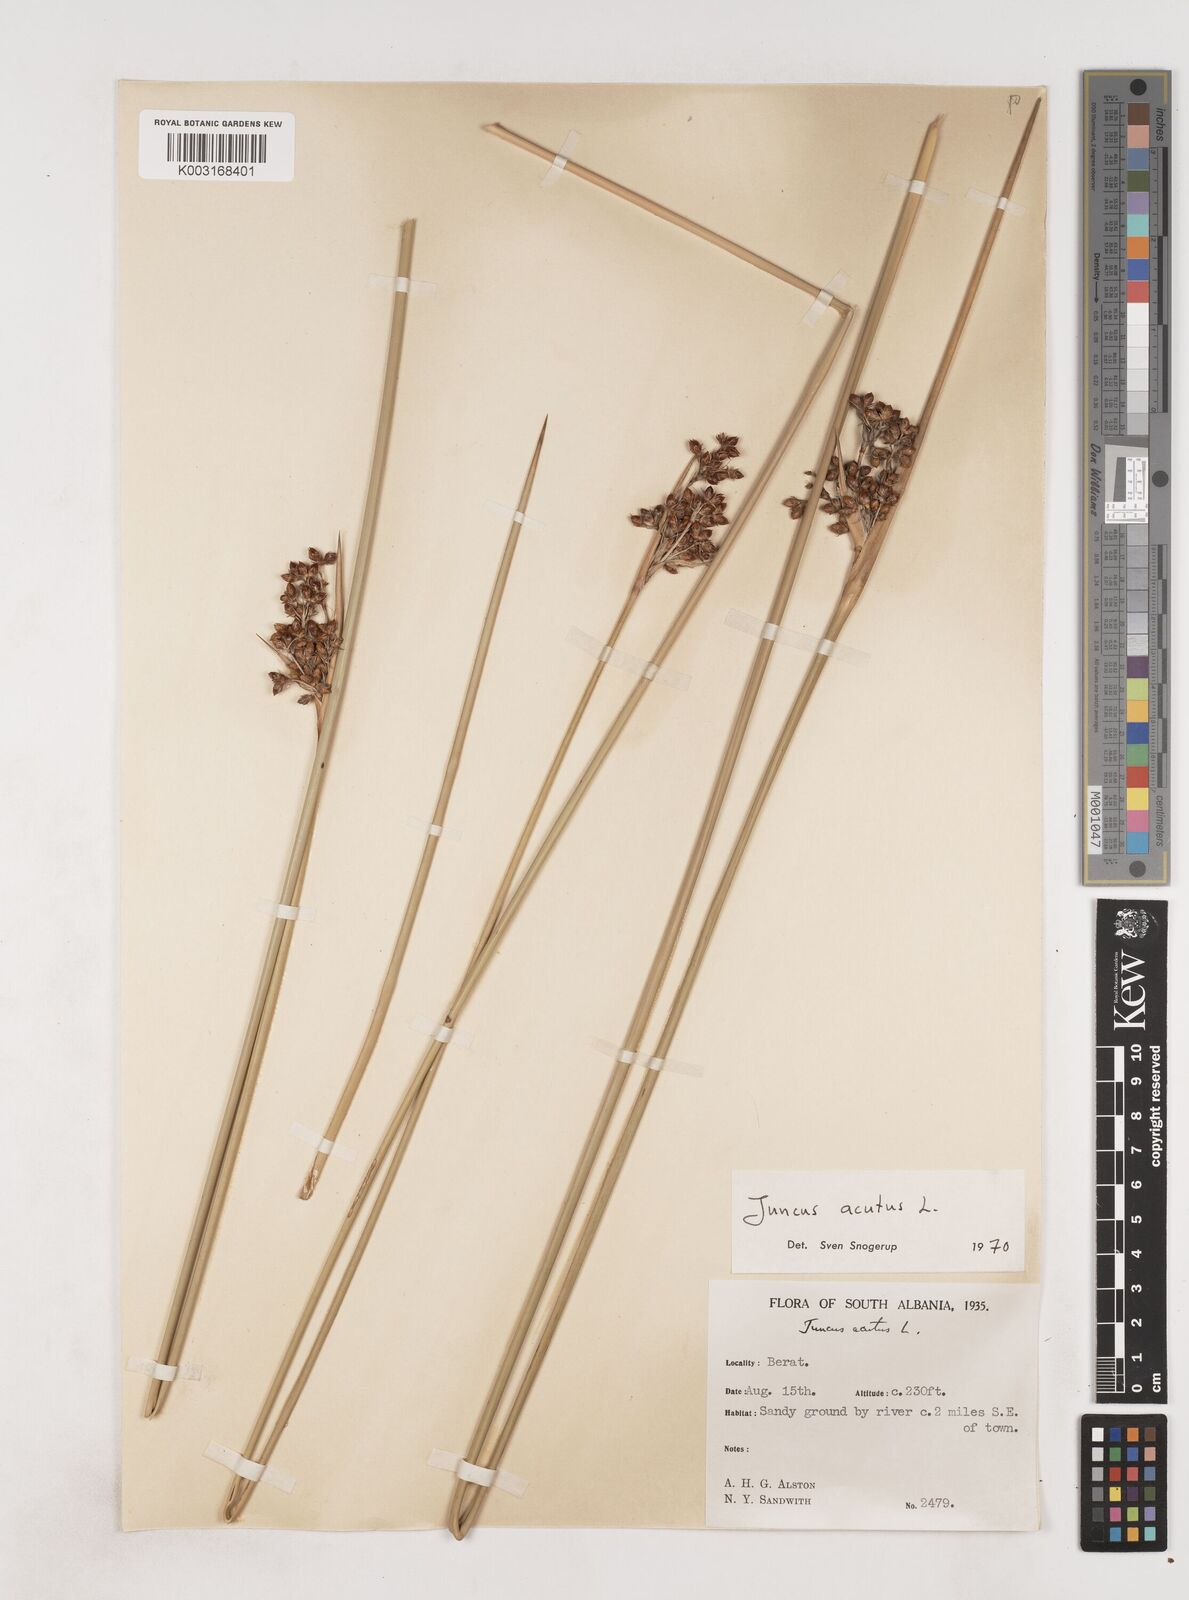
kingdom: Plantae
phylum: Tracheophyta
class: Liliopsida
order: Poales
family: Juncaceae
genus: Juncus
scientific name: Juncus acutus
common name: Sharp rush
